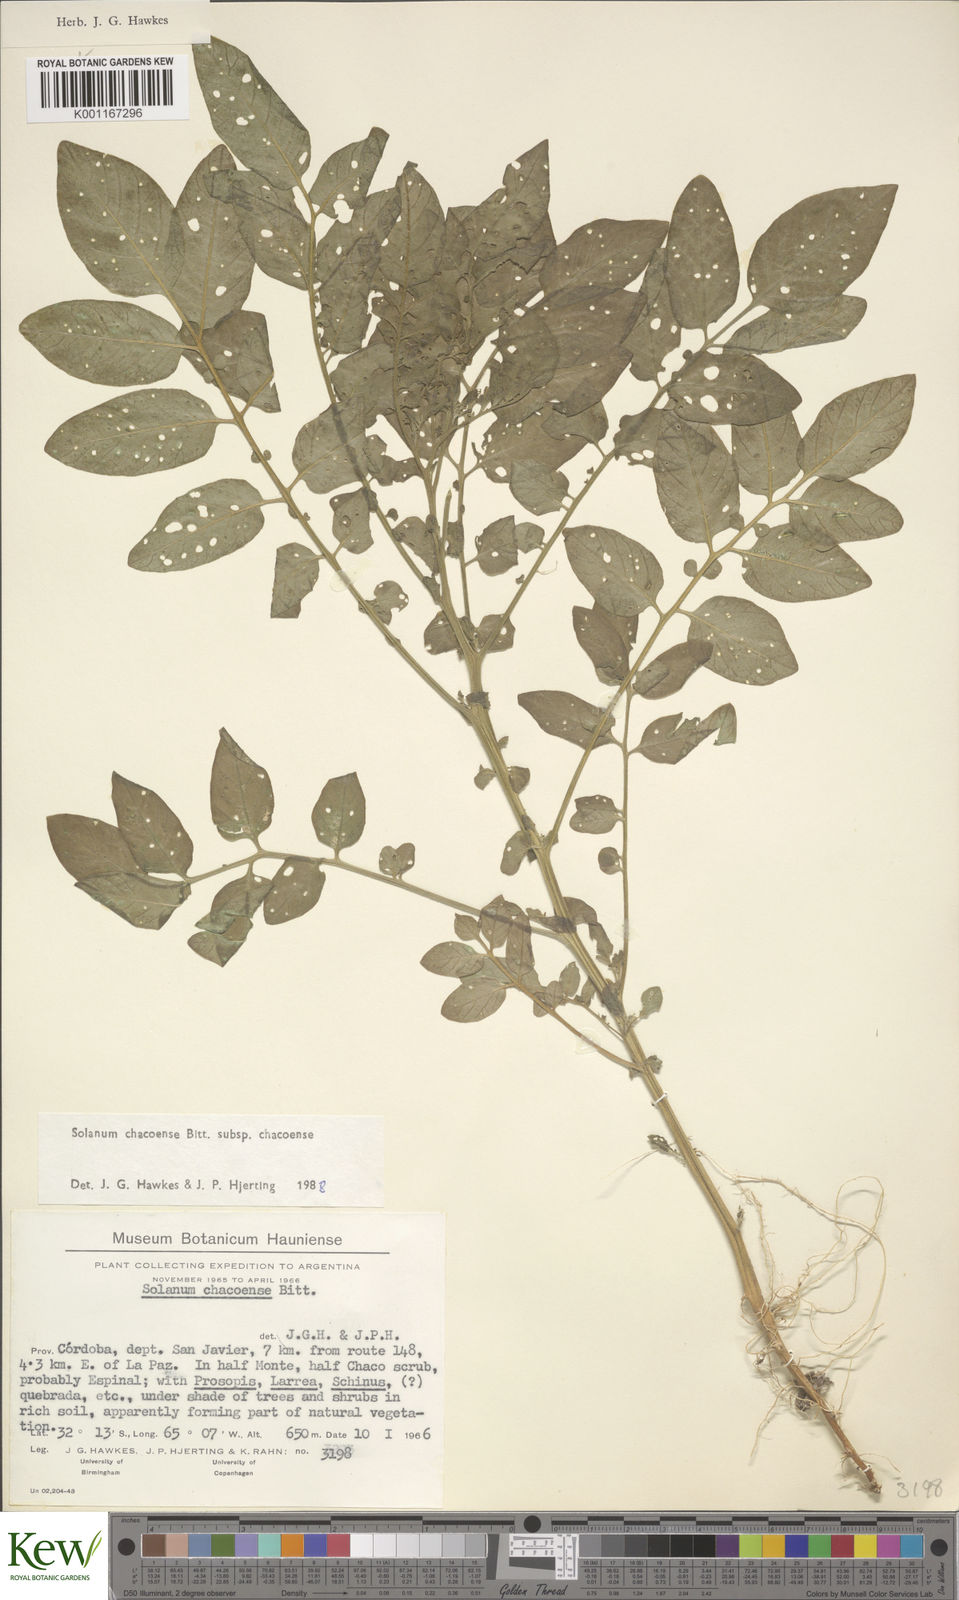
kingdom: Plantae
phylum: Tracheophyta
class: Magnoliopsida
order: Solanales
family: Solanaceae
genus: Solanum
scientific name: Solanum
